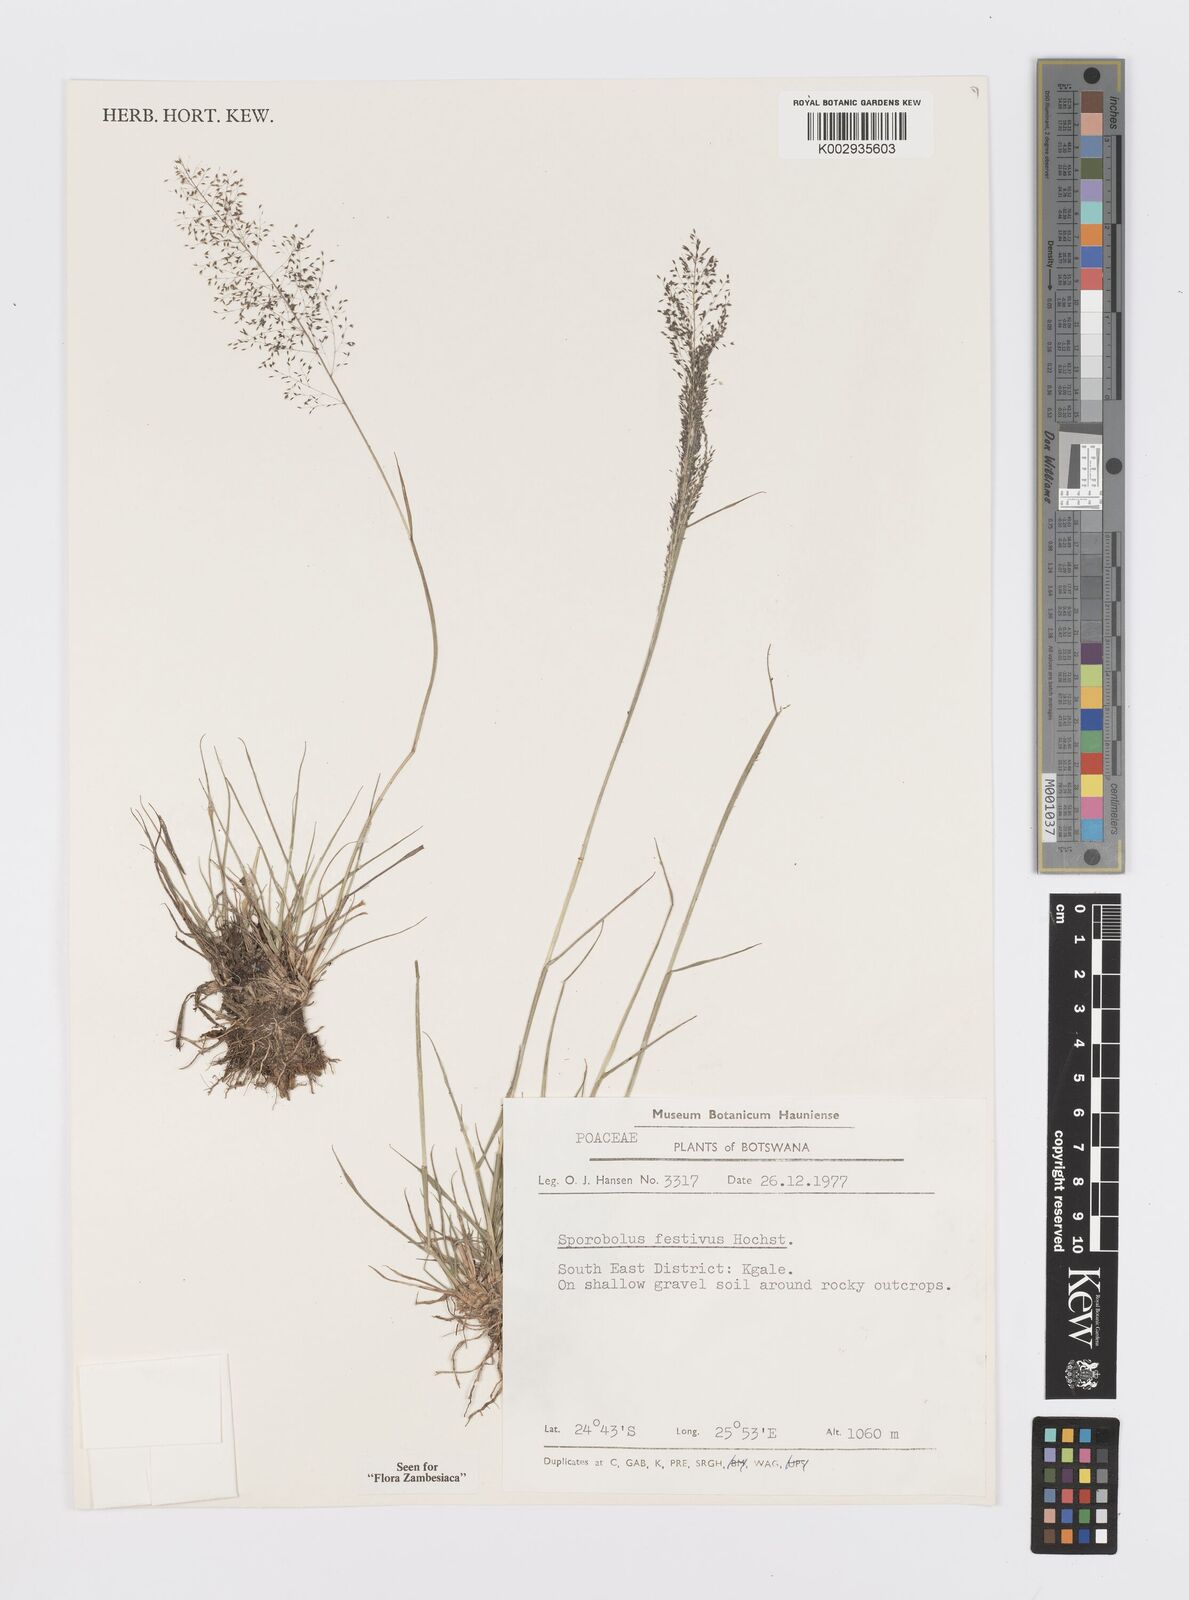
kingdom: Plantae
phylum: Tracheophyta
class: Liliopsida
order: Poales
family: Poaceae
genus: Sporobolus
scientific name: Sporobolus festivus
